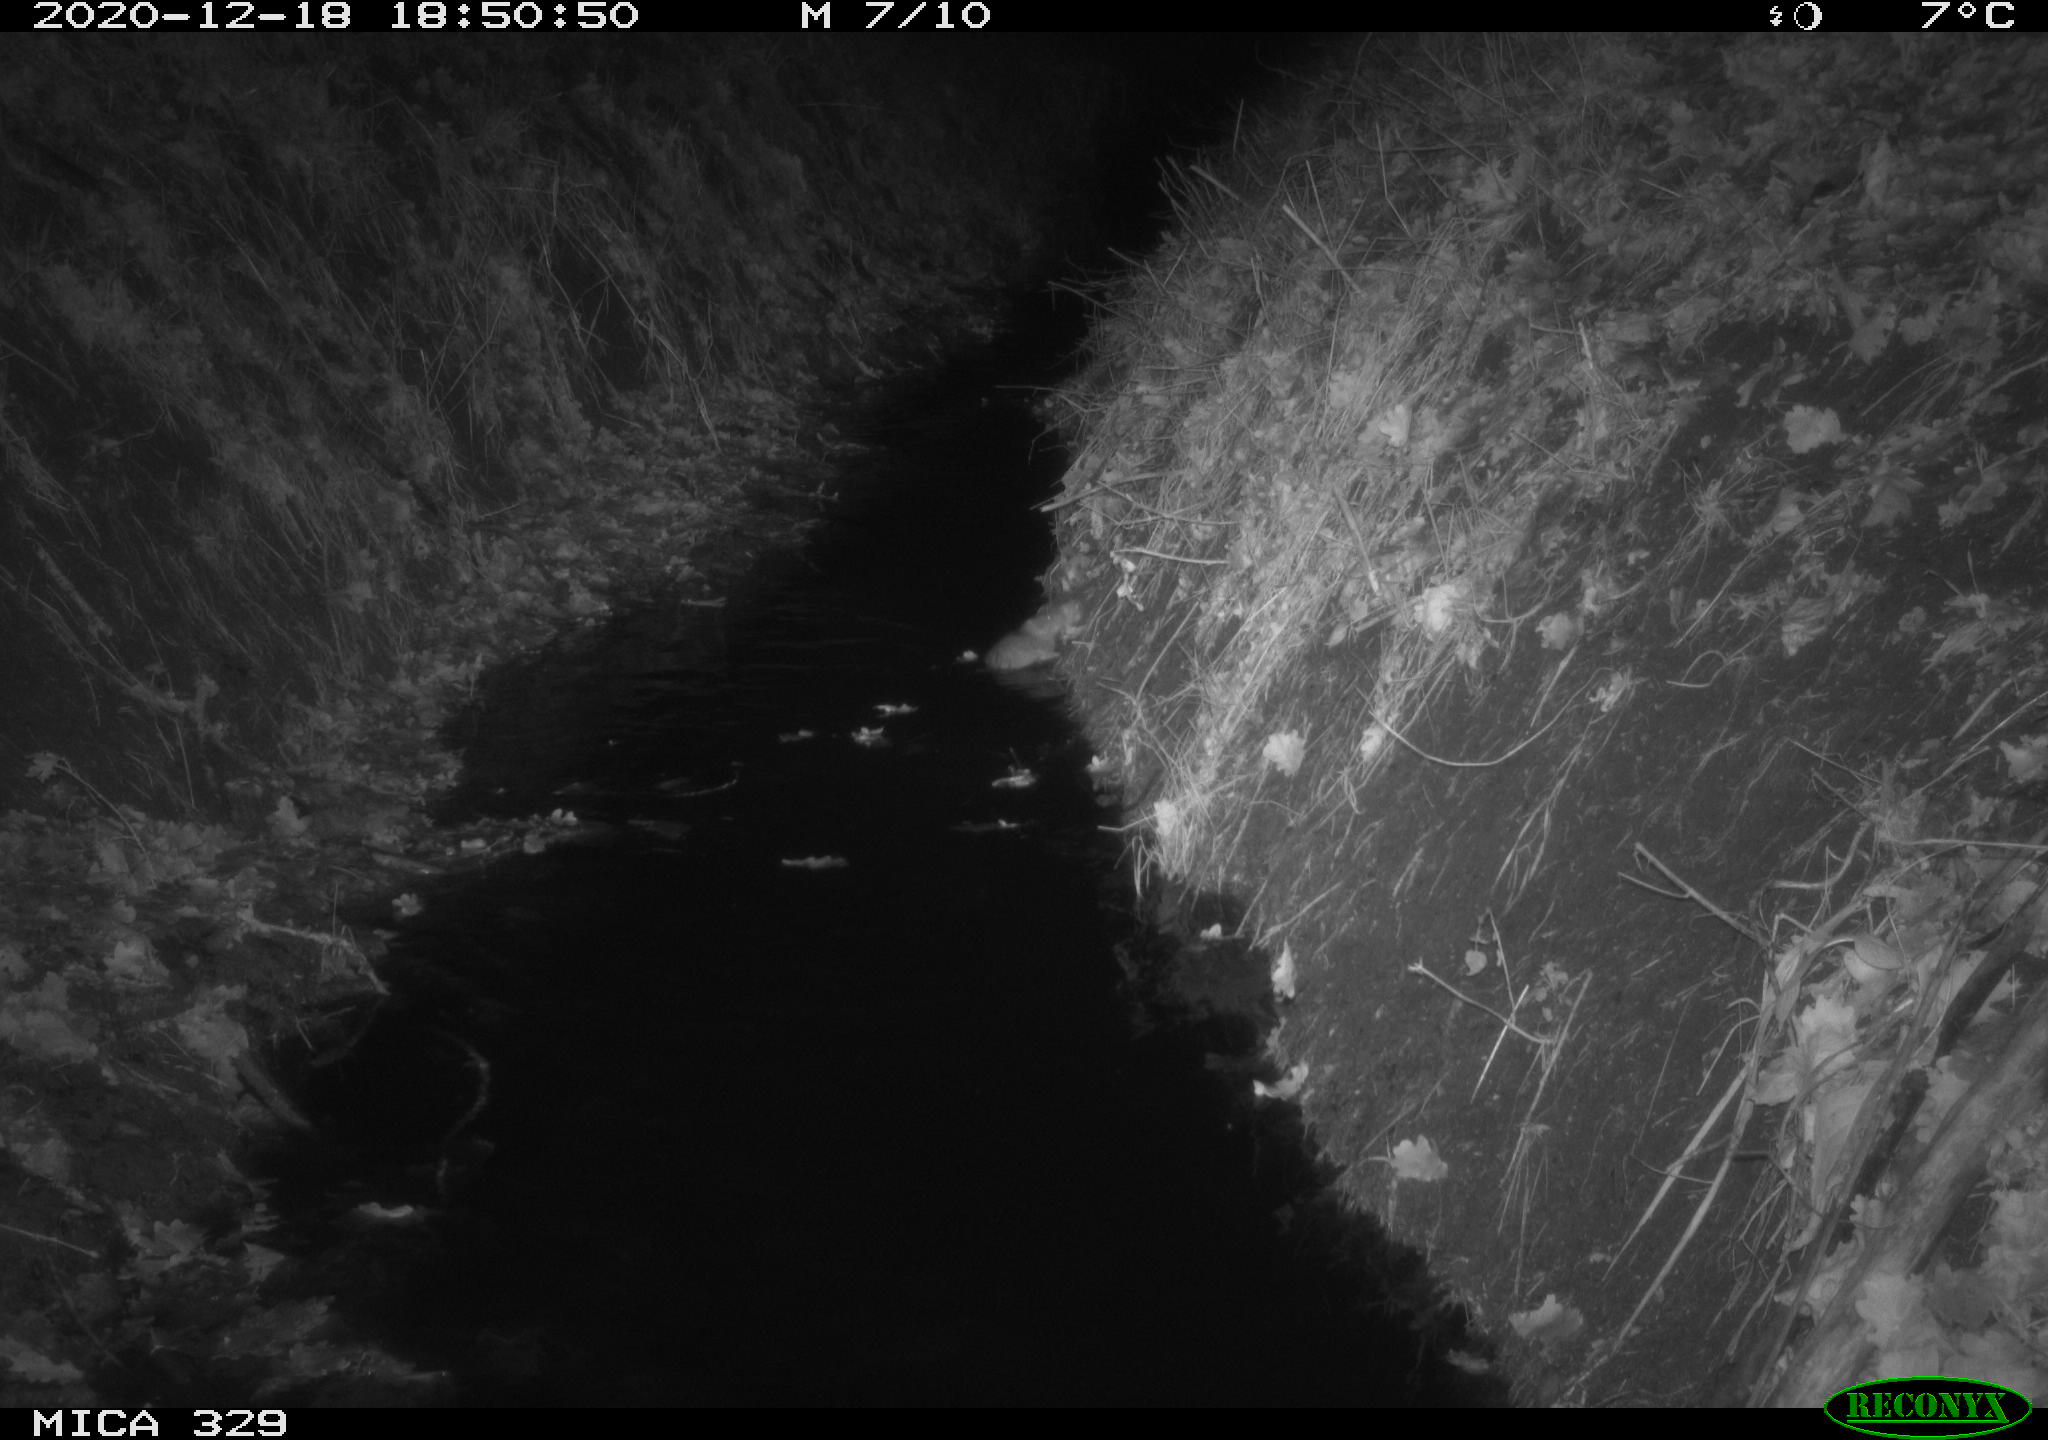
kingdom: Animalia
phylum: Chordata
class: Mammalia
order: Rodentia
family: Muridae
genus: Rattus
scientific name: Rattus norvegicus
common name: Brown rat
